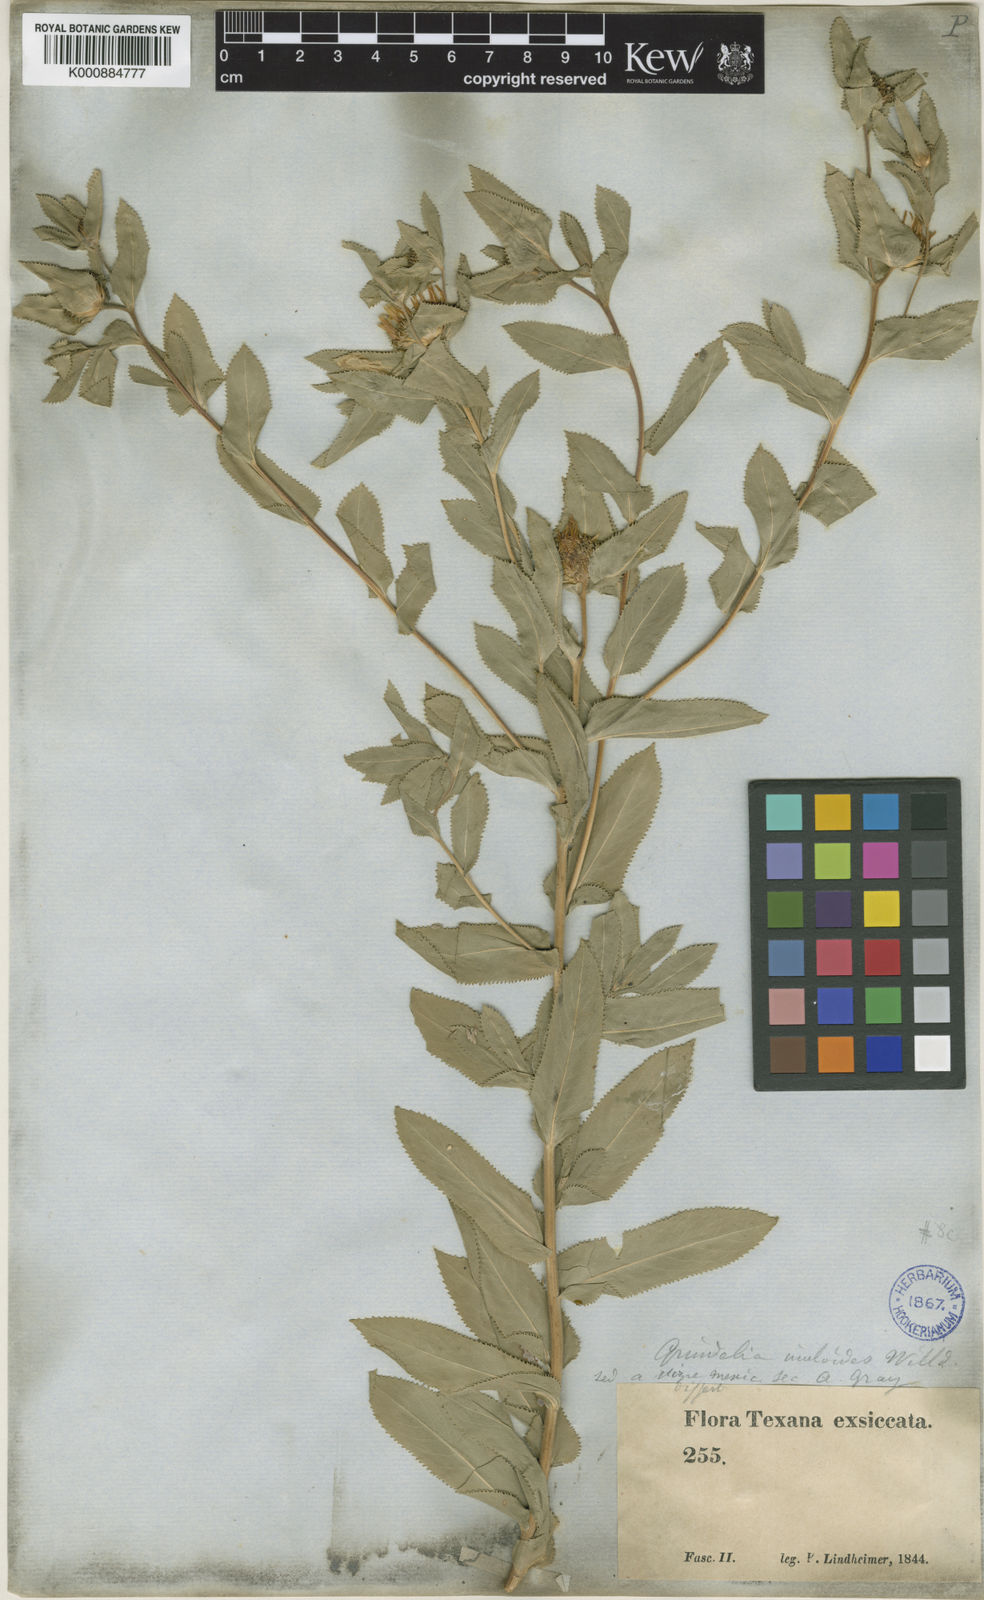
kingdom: Plantae
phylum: Tracheophyta
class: Magnoliopsida
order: Asterales
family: Asteraceae
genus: Grindelia
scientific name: Grindelia adenodonta
